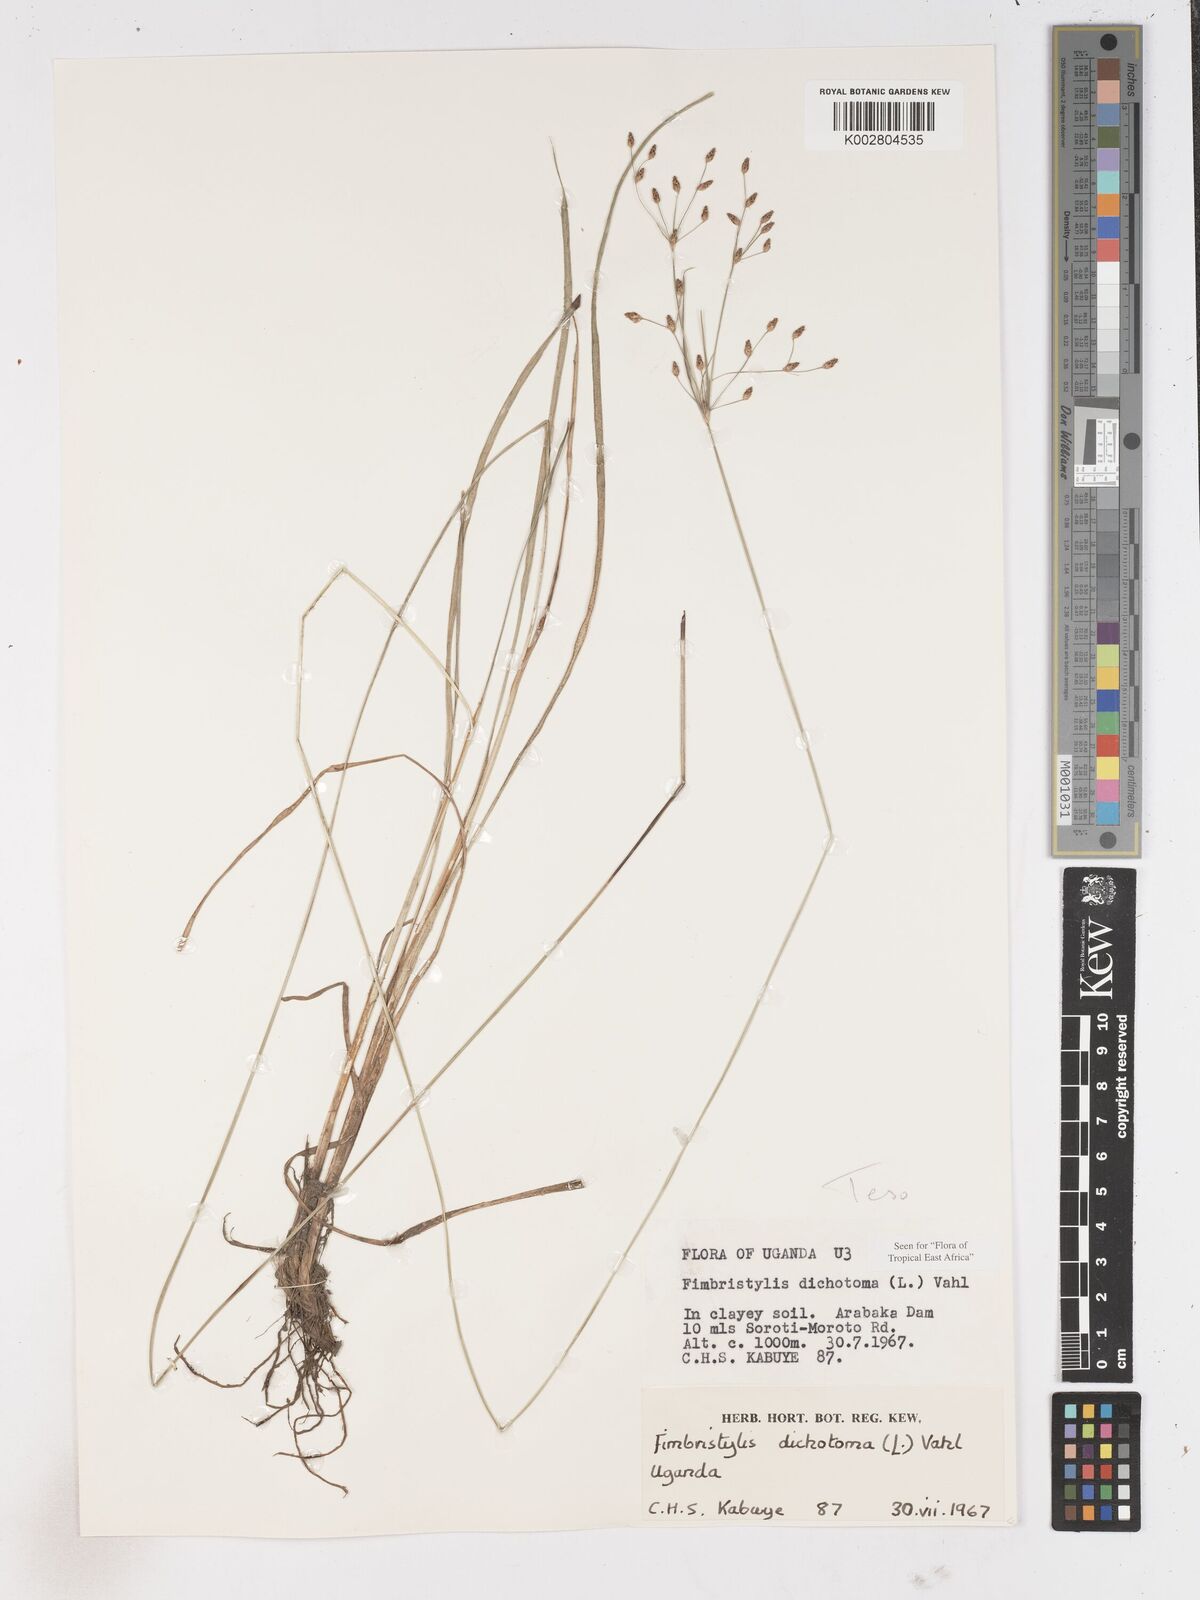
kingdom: Plantae
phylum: Tracheophyta
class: Liliopsida
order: Poales
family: Cyperaceae
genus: Fimbristylis
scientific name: Fimbristylis dichotoma
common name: Forked fimbry
